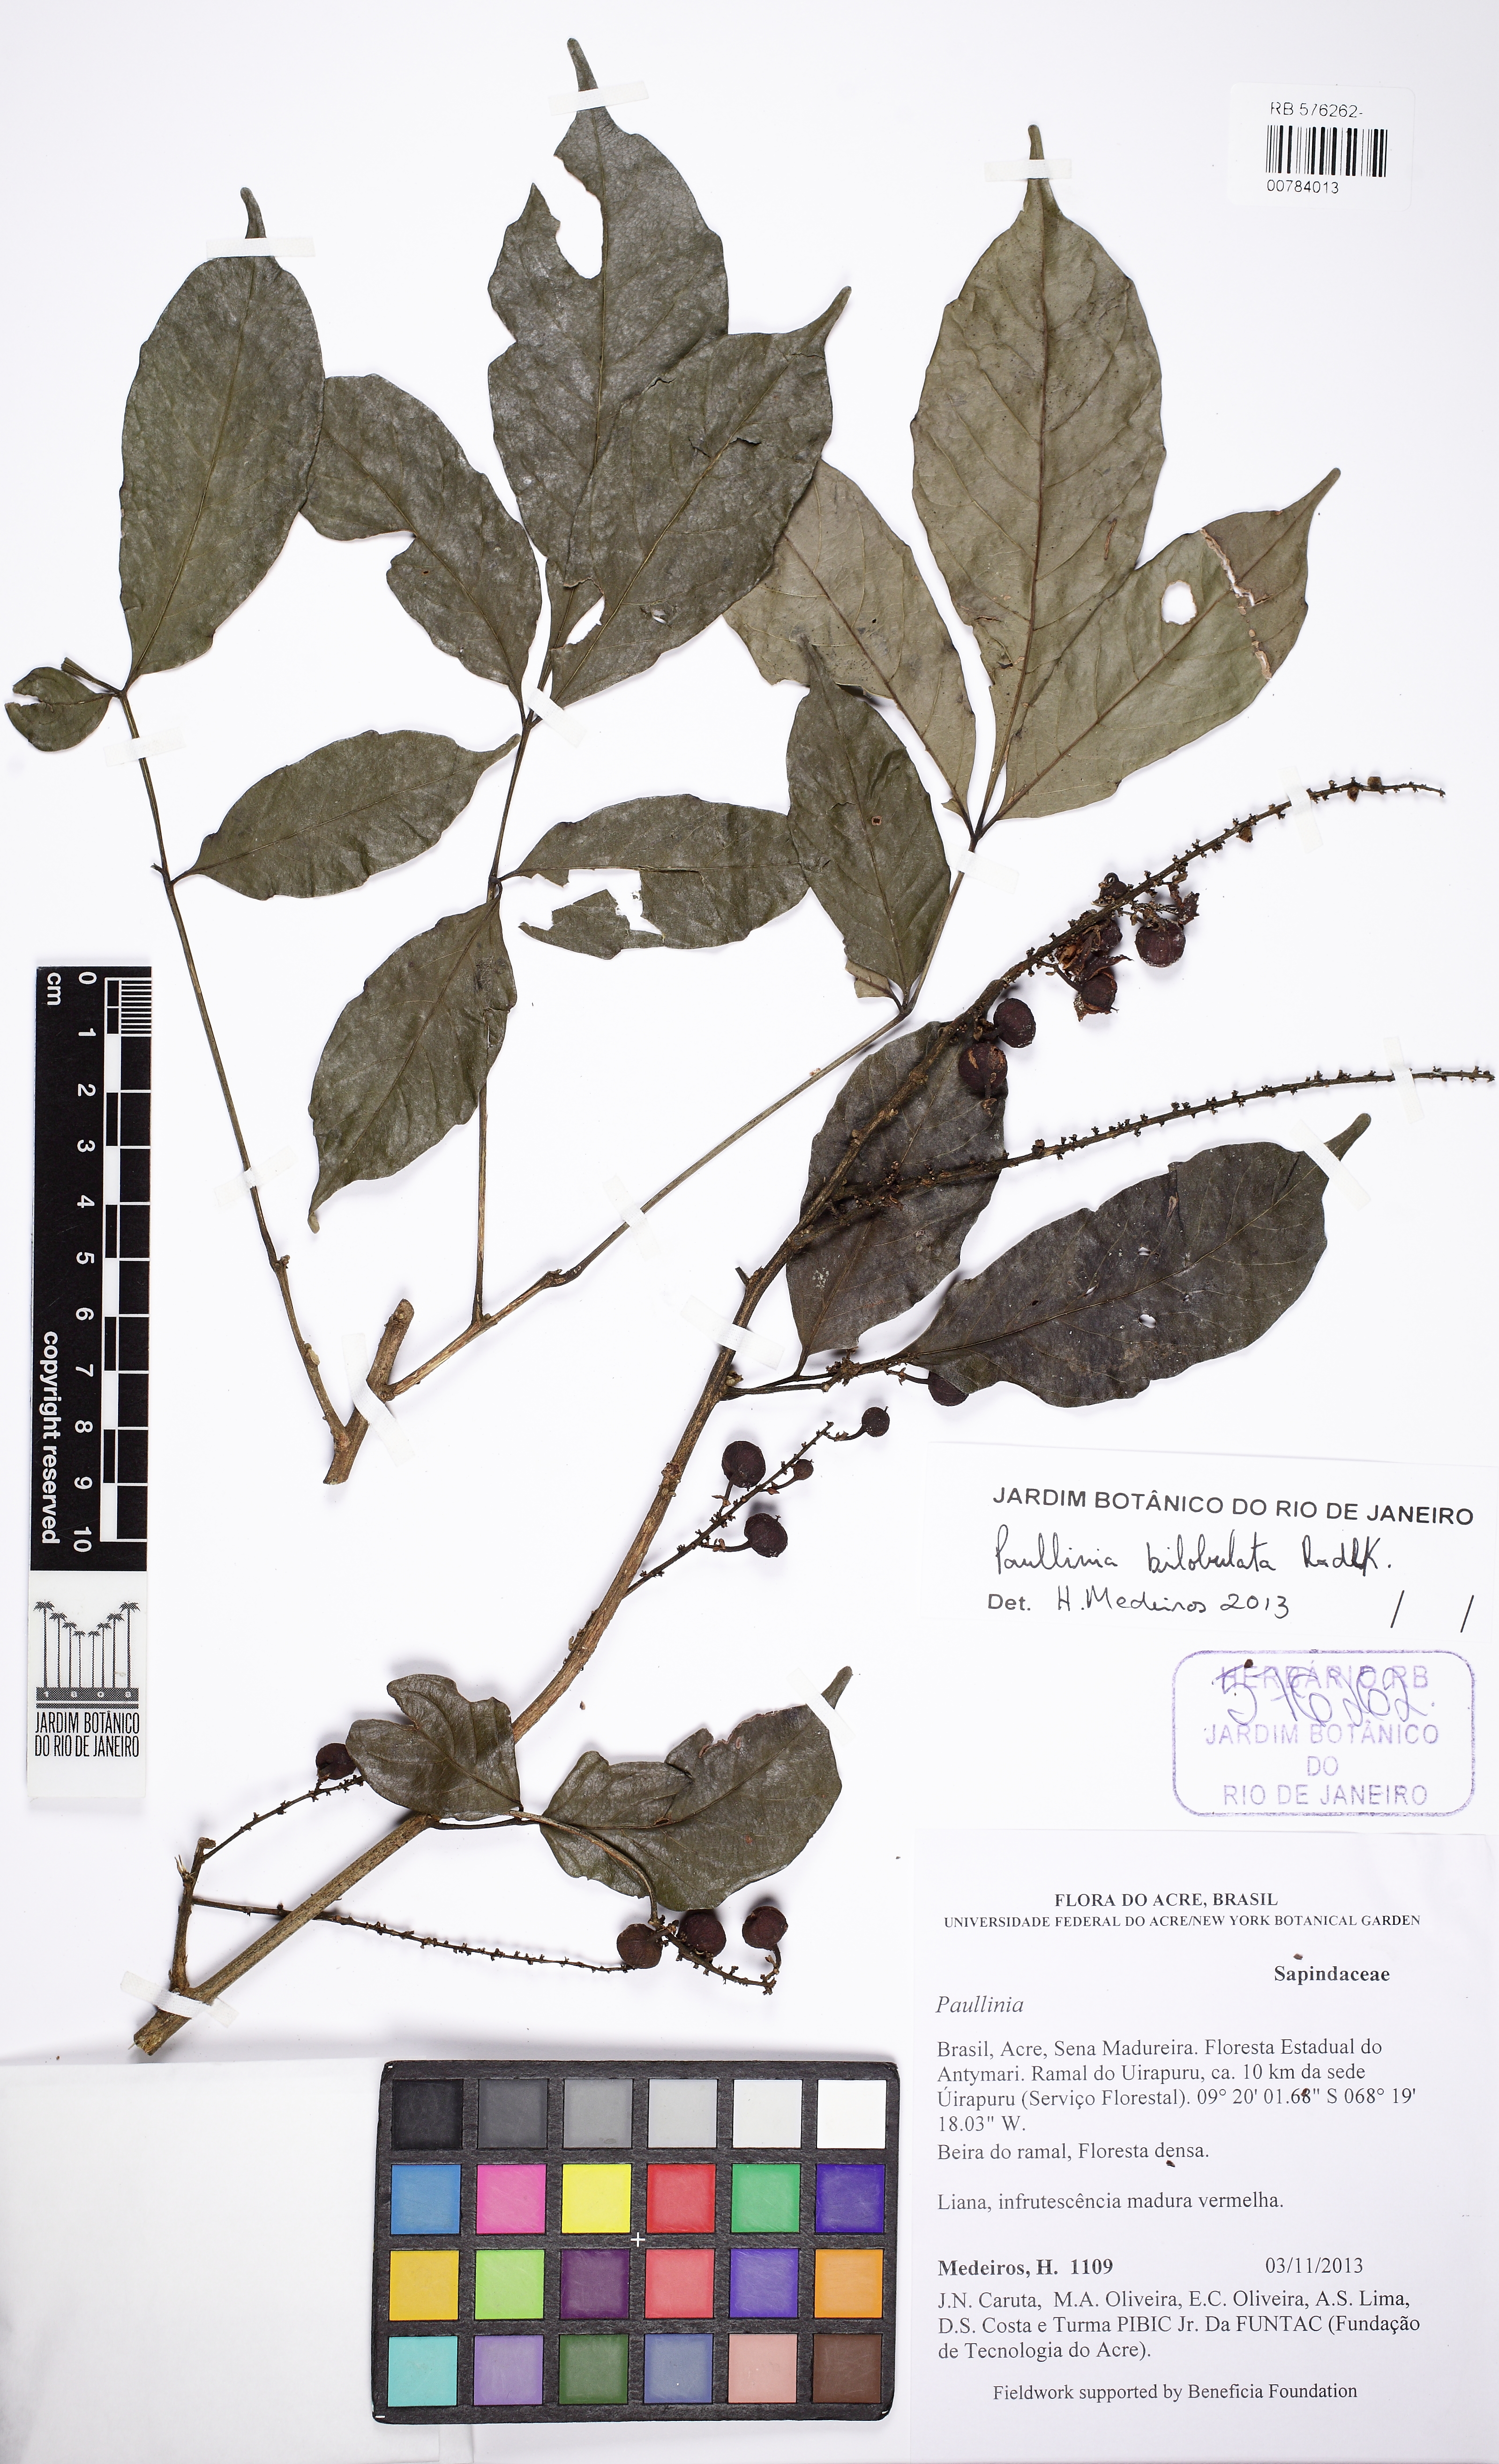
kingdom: Plantae
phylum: Tracheophyta
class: Magnoliopsida
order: Sapindales
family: Sapindaceae
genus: Paullinia
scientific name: Paullinia bilobulata
